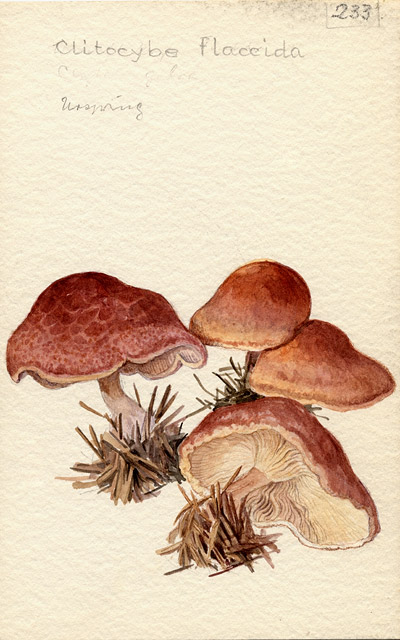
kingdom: Fungi
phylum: Basidiomycota
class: Agaricomycetes
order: Agaricales
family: Tricholomataceae
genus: Paralepista
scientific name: Paralepista flaccida
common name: Tawny funnel cap
